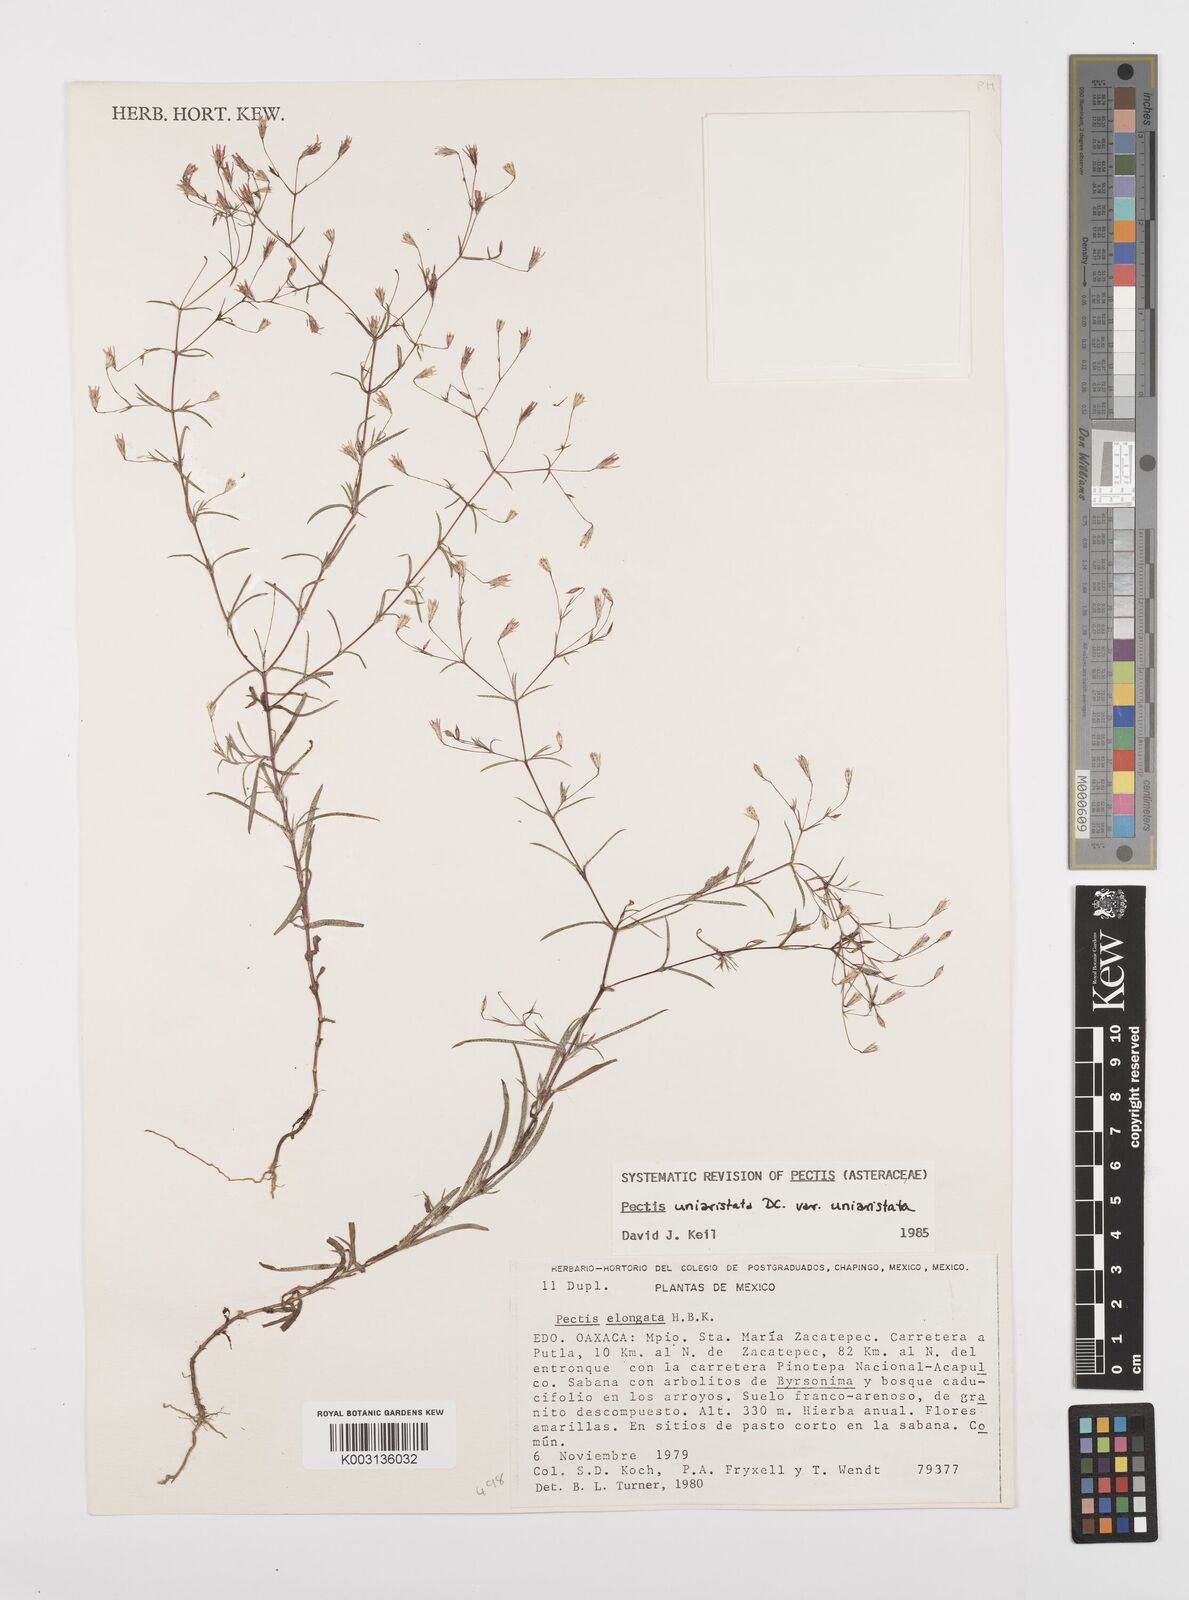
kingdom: Plantae
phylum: Tracheophyta
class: Magnoliopsida
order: Asterales
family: Asteraceae
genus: Pectis
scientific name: Pectis uniaristata
